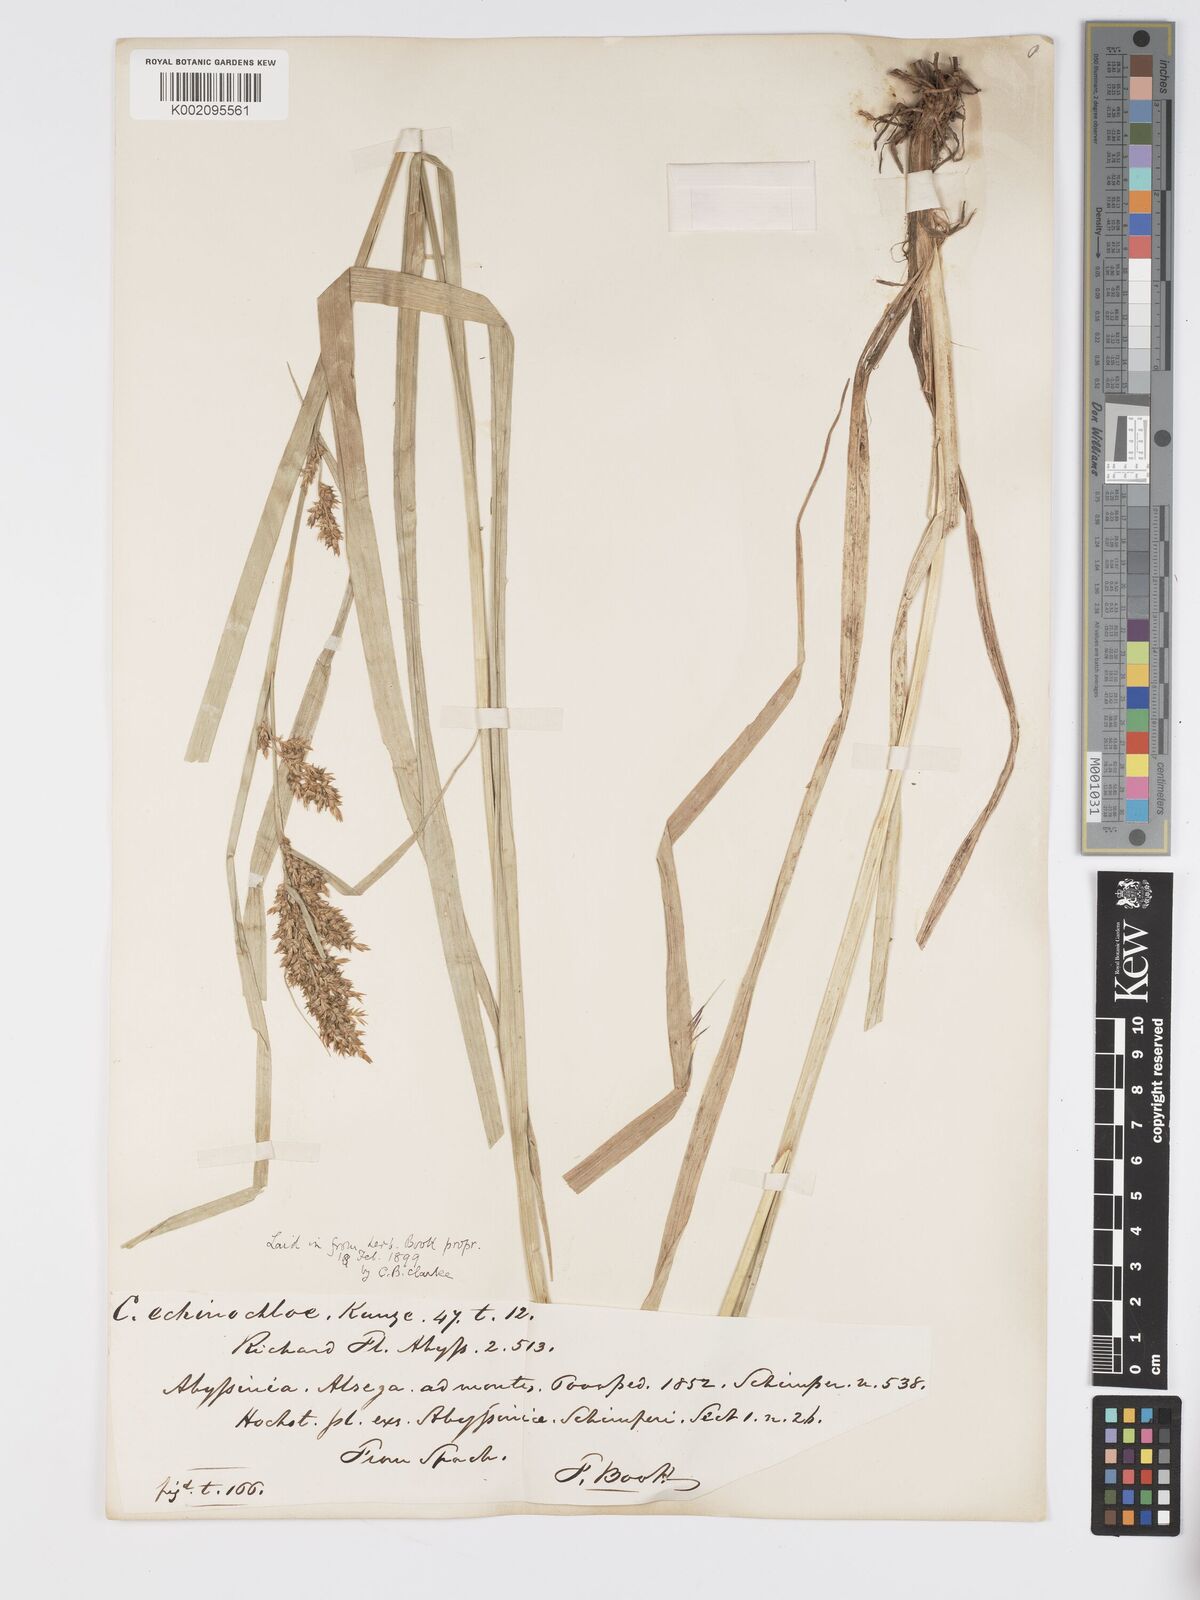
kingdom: Plantae
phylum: Tracheophyta
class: Liliopsida
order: Poales
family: Cyperaceae
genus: Carex
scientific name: Carex echinochloe
